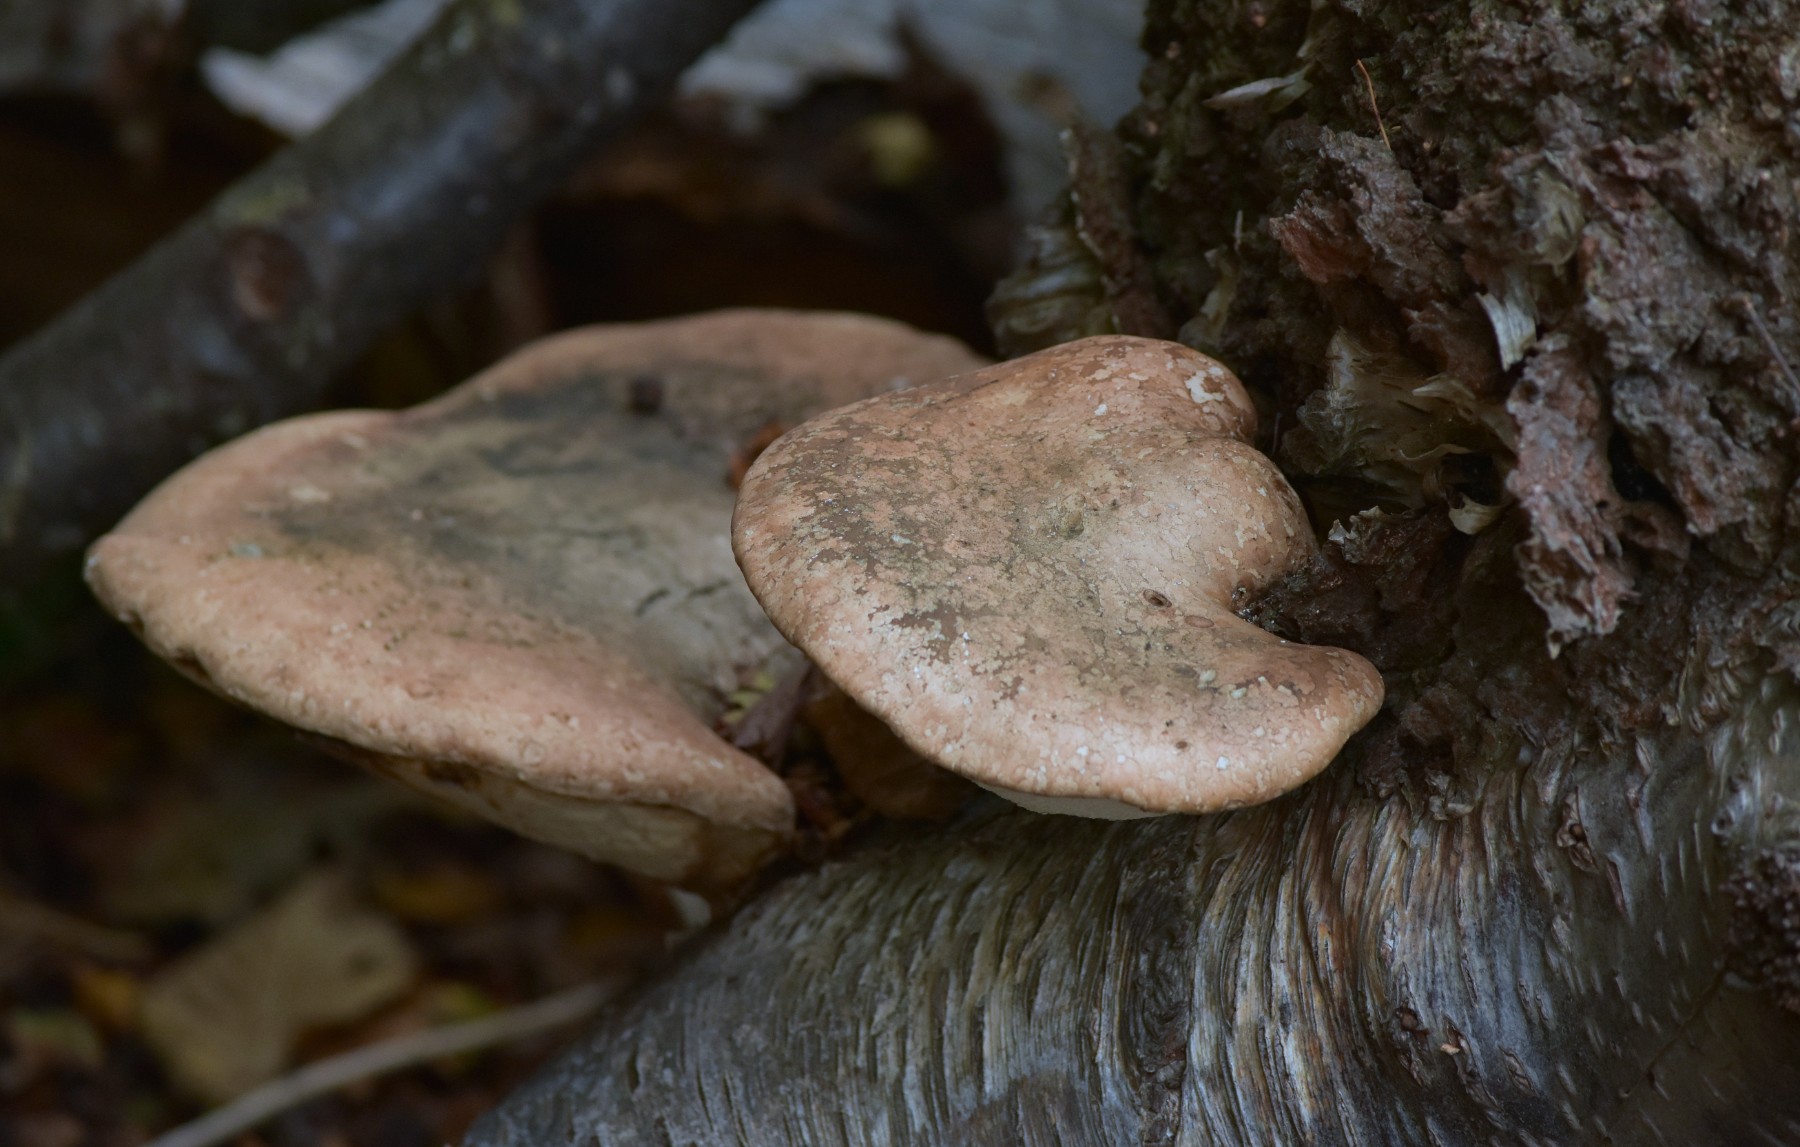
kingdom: Fungi
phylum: Basidiomycota
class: Agaricomycetes
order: Polyporales
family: Fomitopsidaceae
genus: Fomitopsis
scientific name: Fomitopsis betulina
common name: birkeporesvamp
